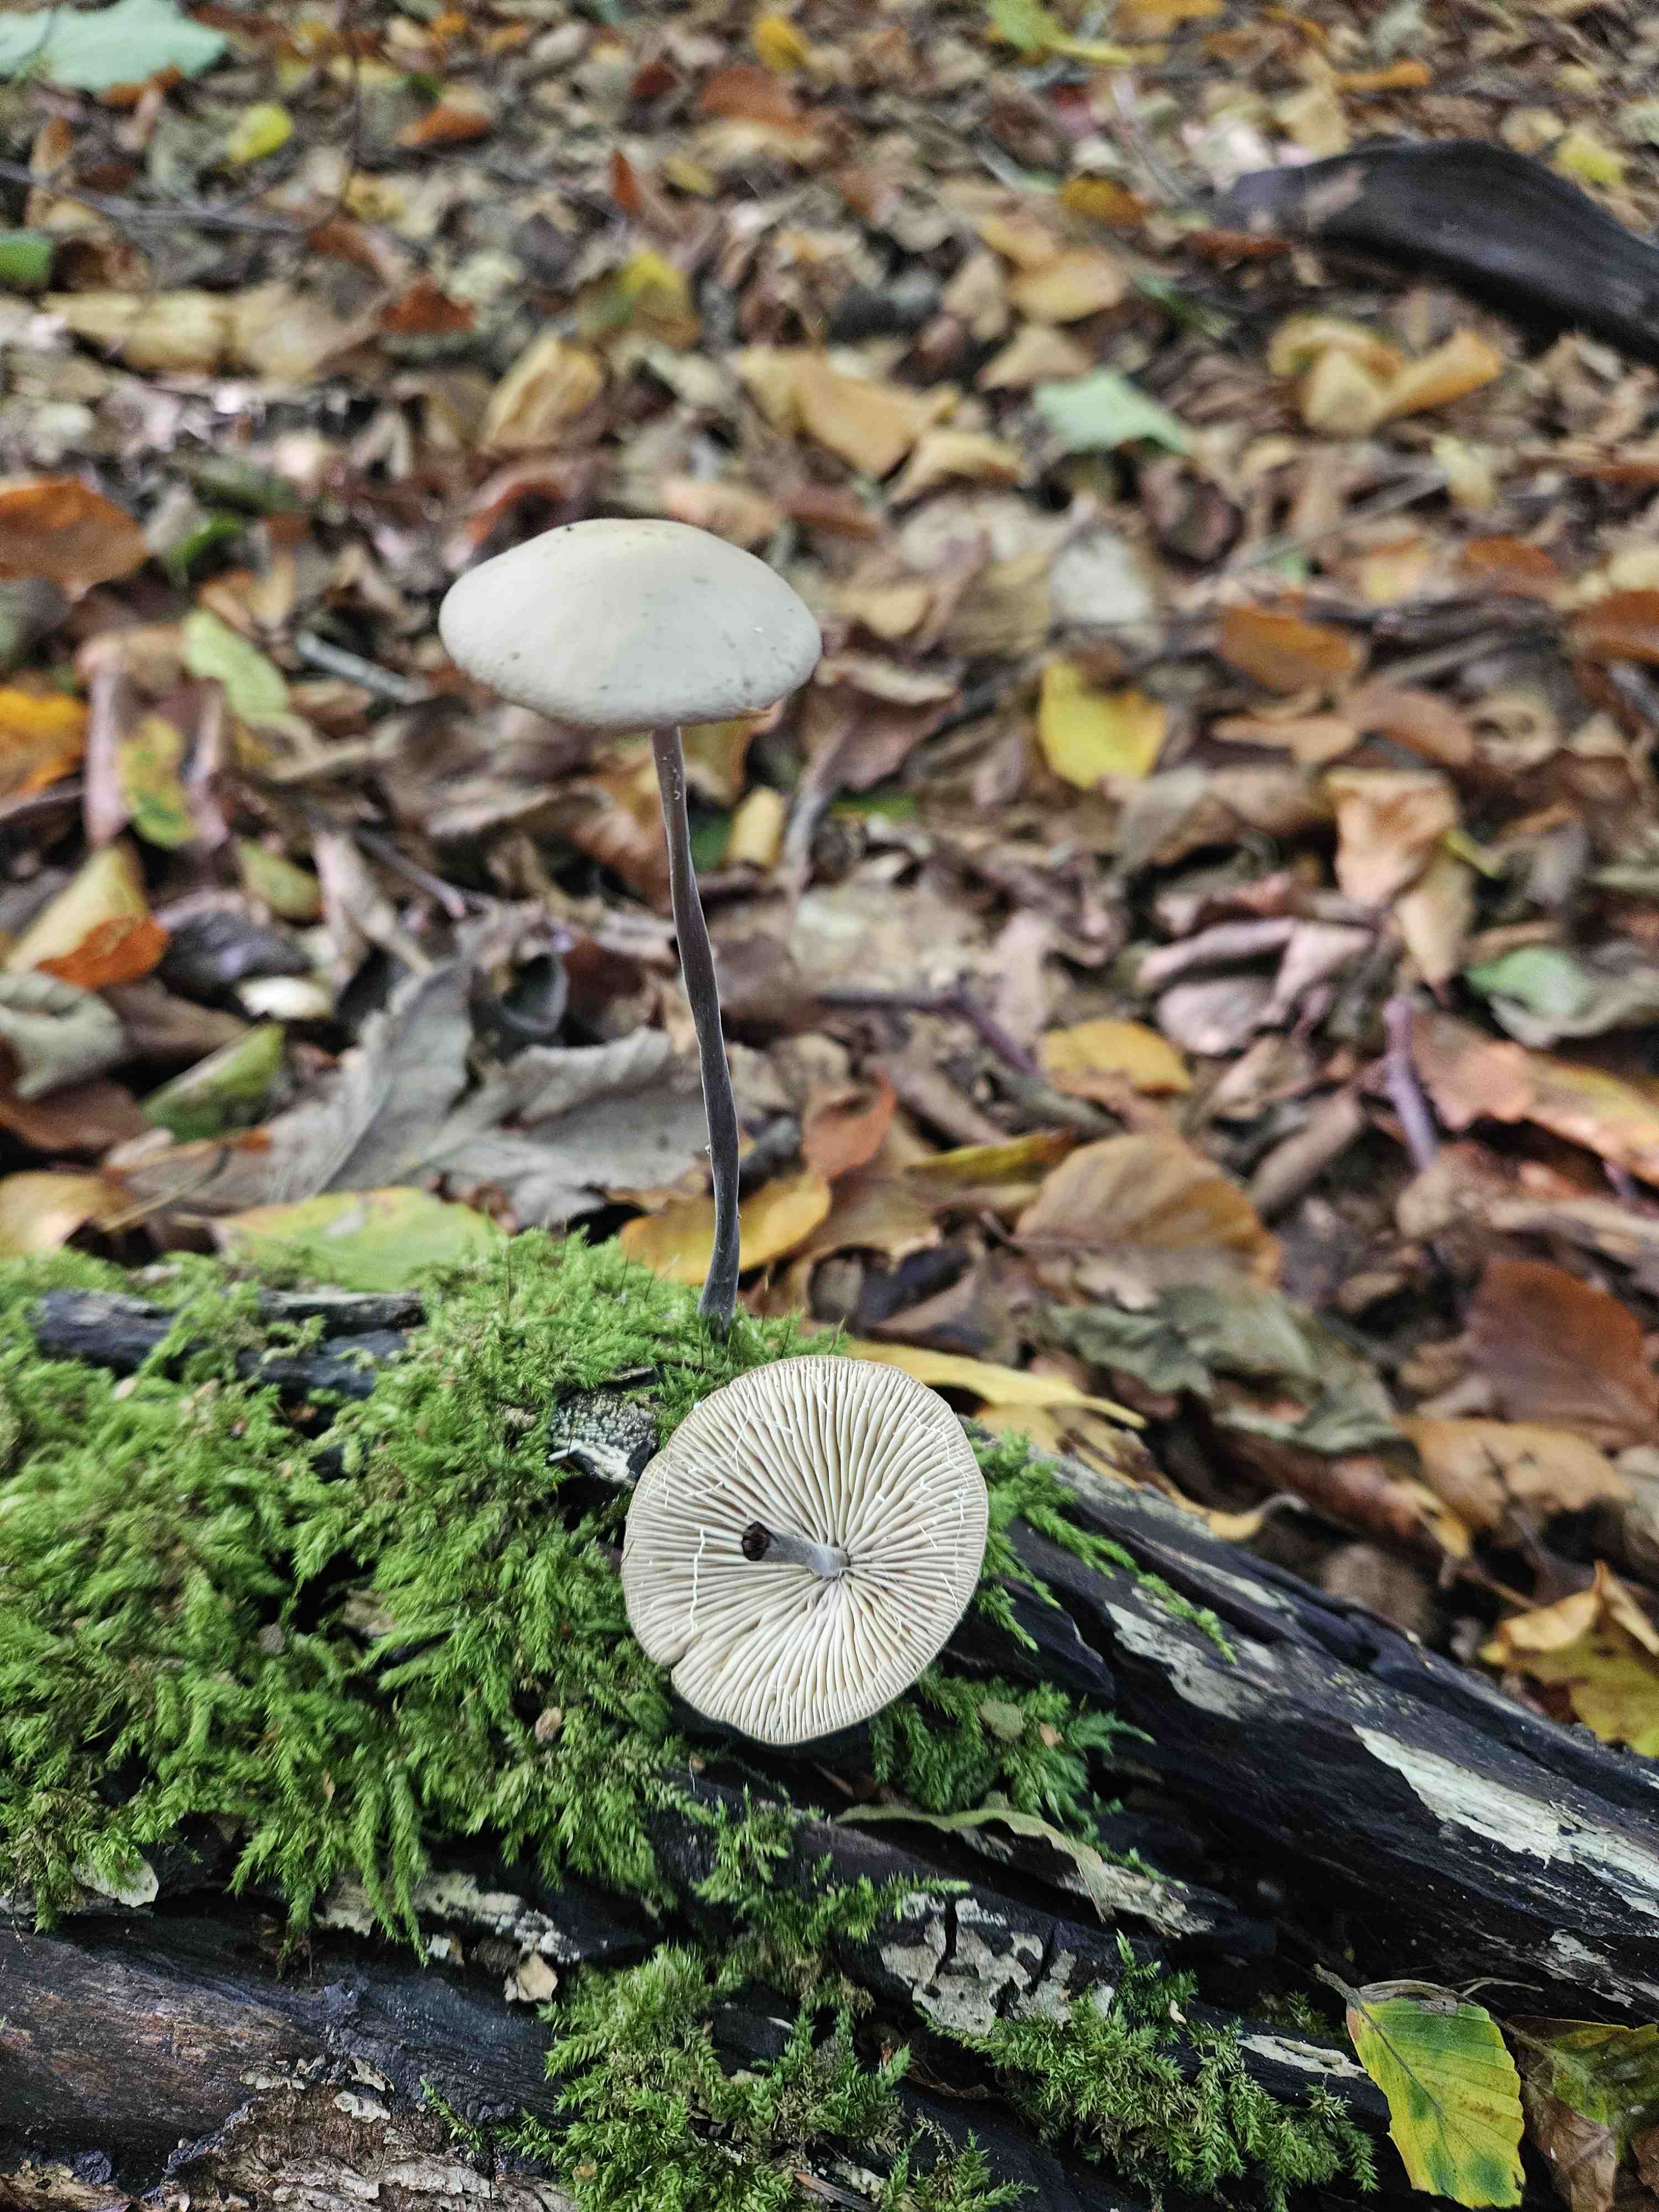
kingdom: Fungi
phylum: Basidiomycota
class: Agaricomycetes
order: Agaricales
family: Omphalotaceae
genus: Mycetinis
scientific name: Mycetinis alliaceus
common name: stor løghat
